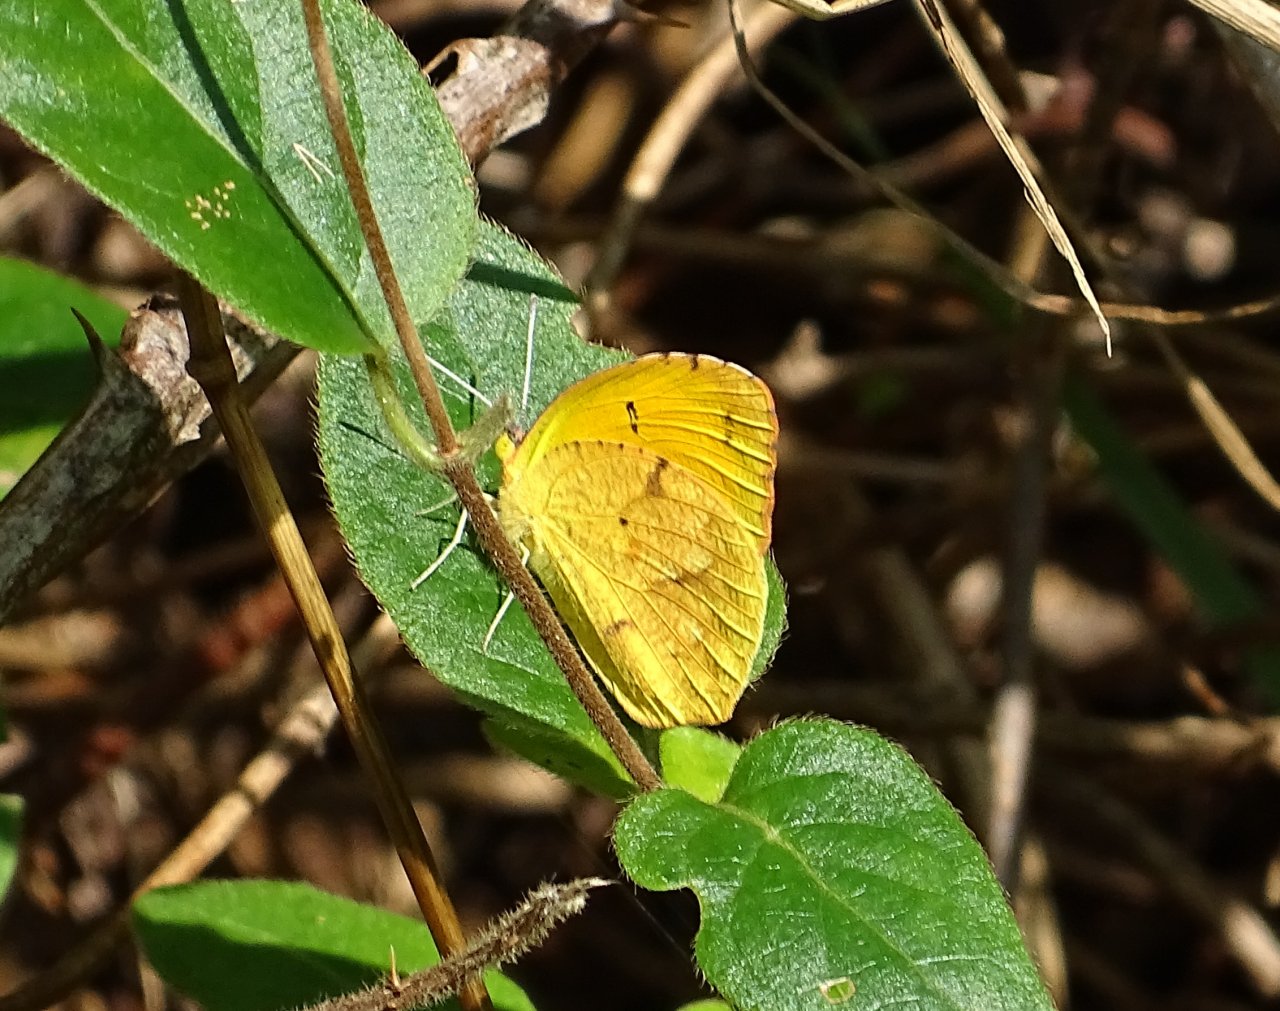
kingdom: Animalia
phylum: Arthropoda
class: Insecta
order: Lepidoptera
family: Pieridae
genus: Abaeis
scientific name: Abaeis nicippe
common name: Sleepy Orange
